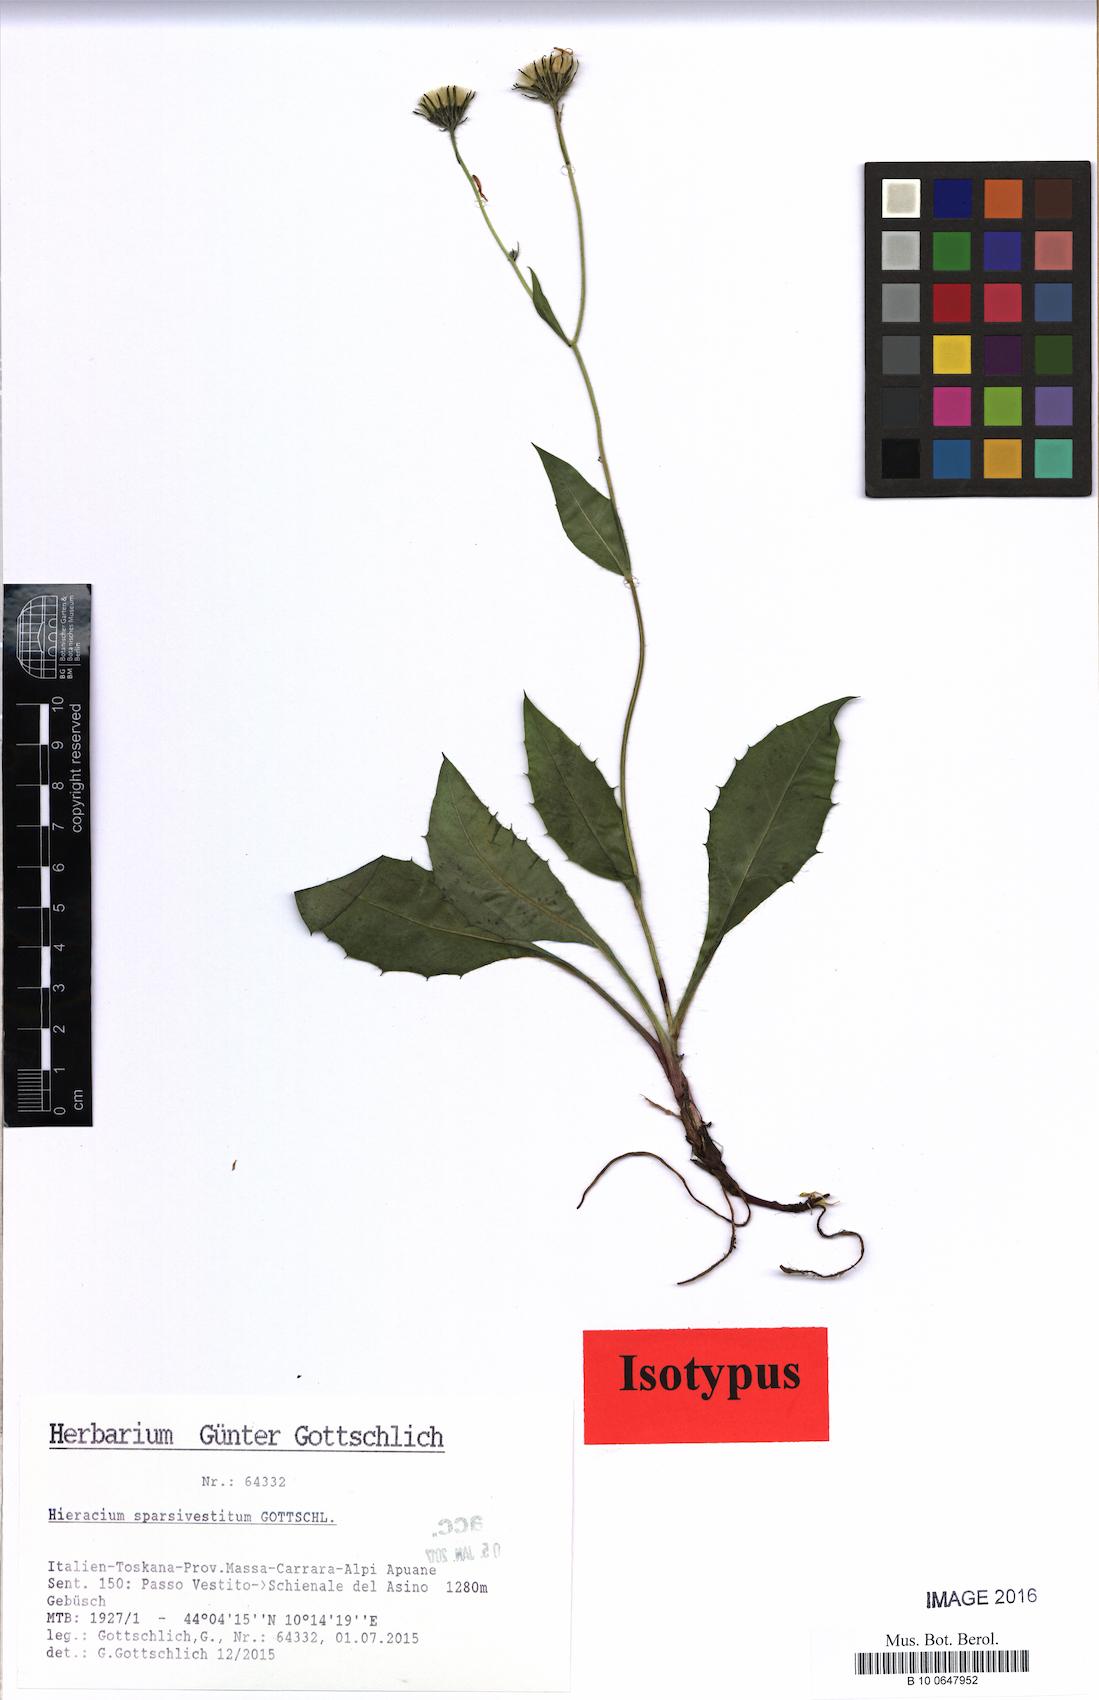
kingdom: Plantae
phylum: Tracheophyta
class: Magnoliopsida
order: Asterales
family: Asteraceae
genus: Hieracium
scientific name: Hieracium sparsivestitum
